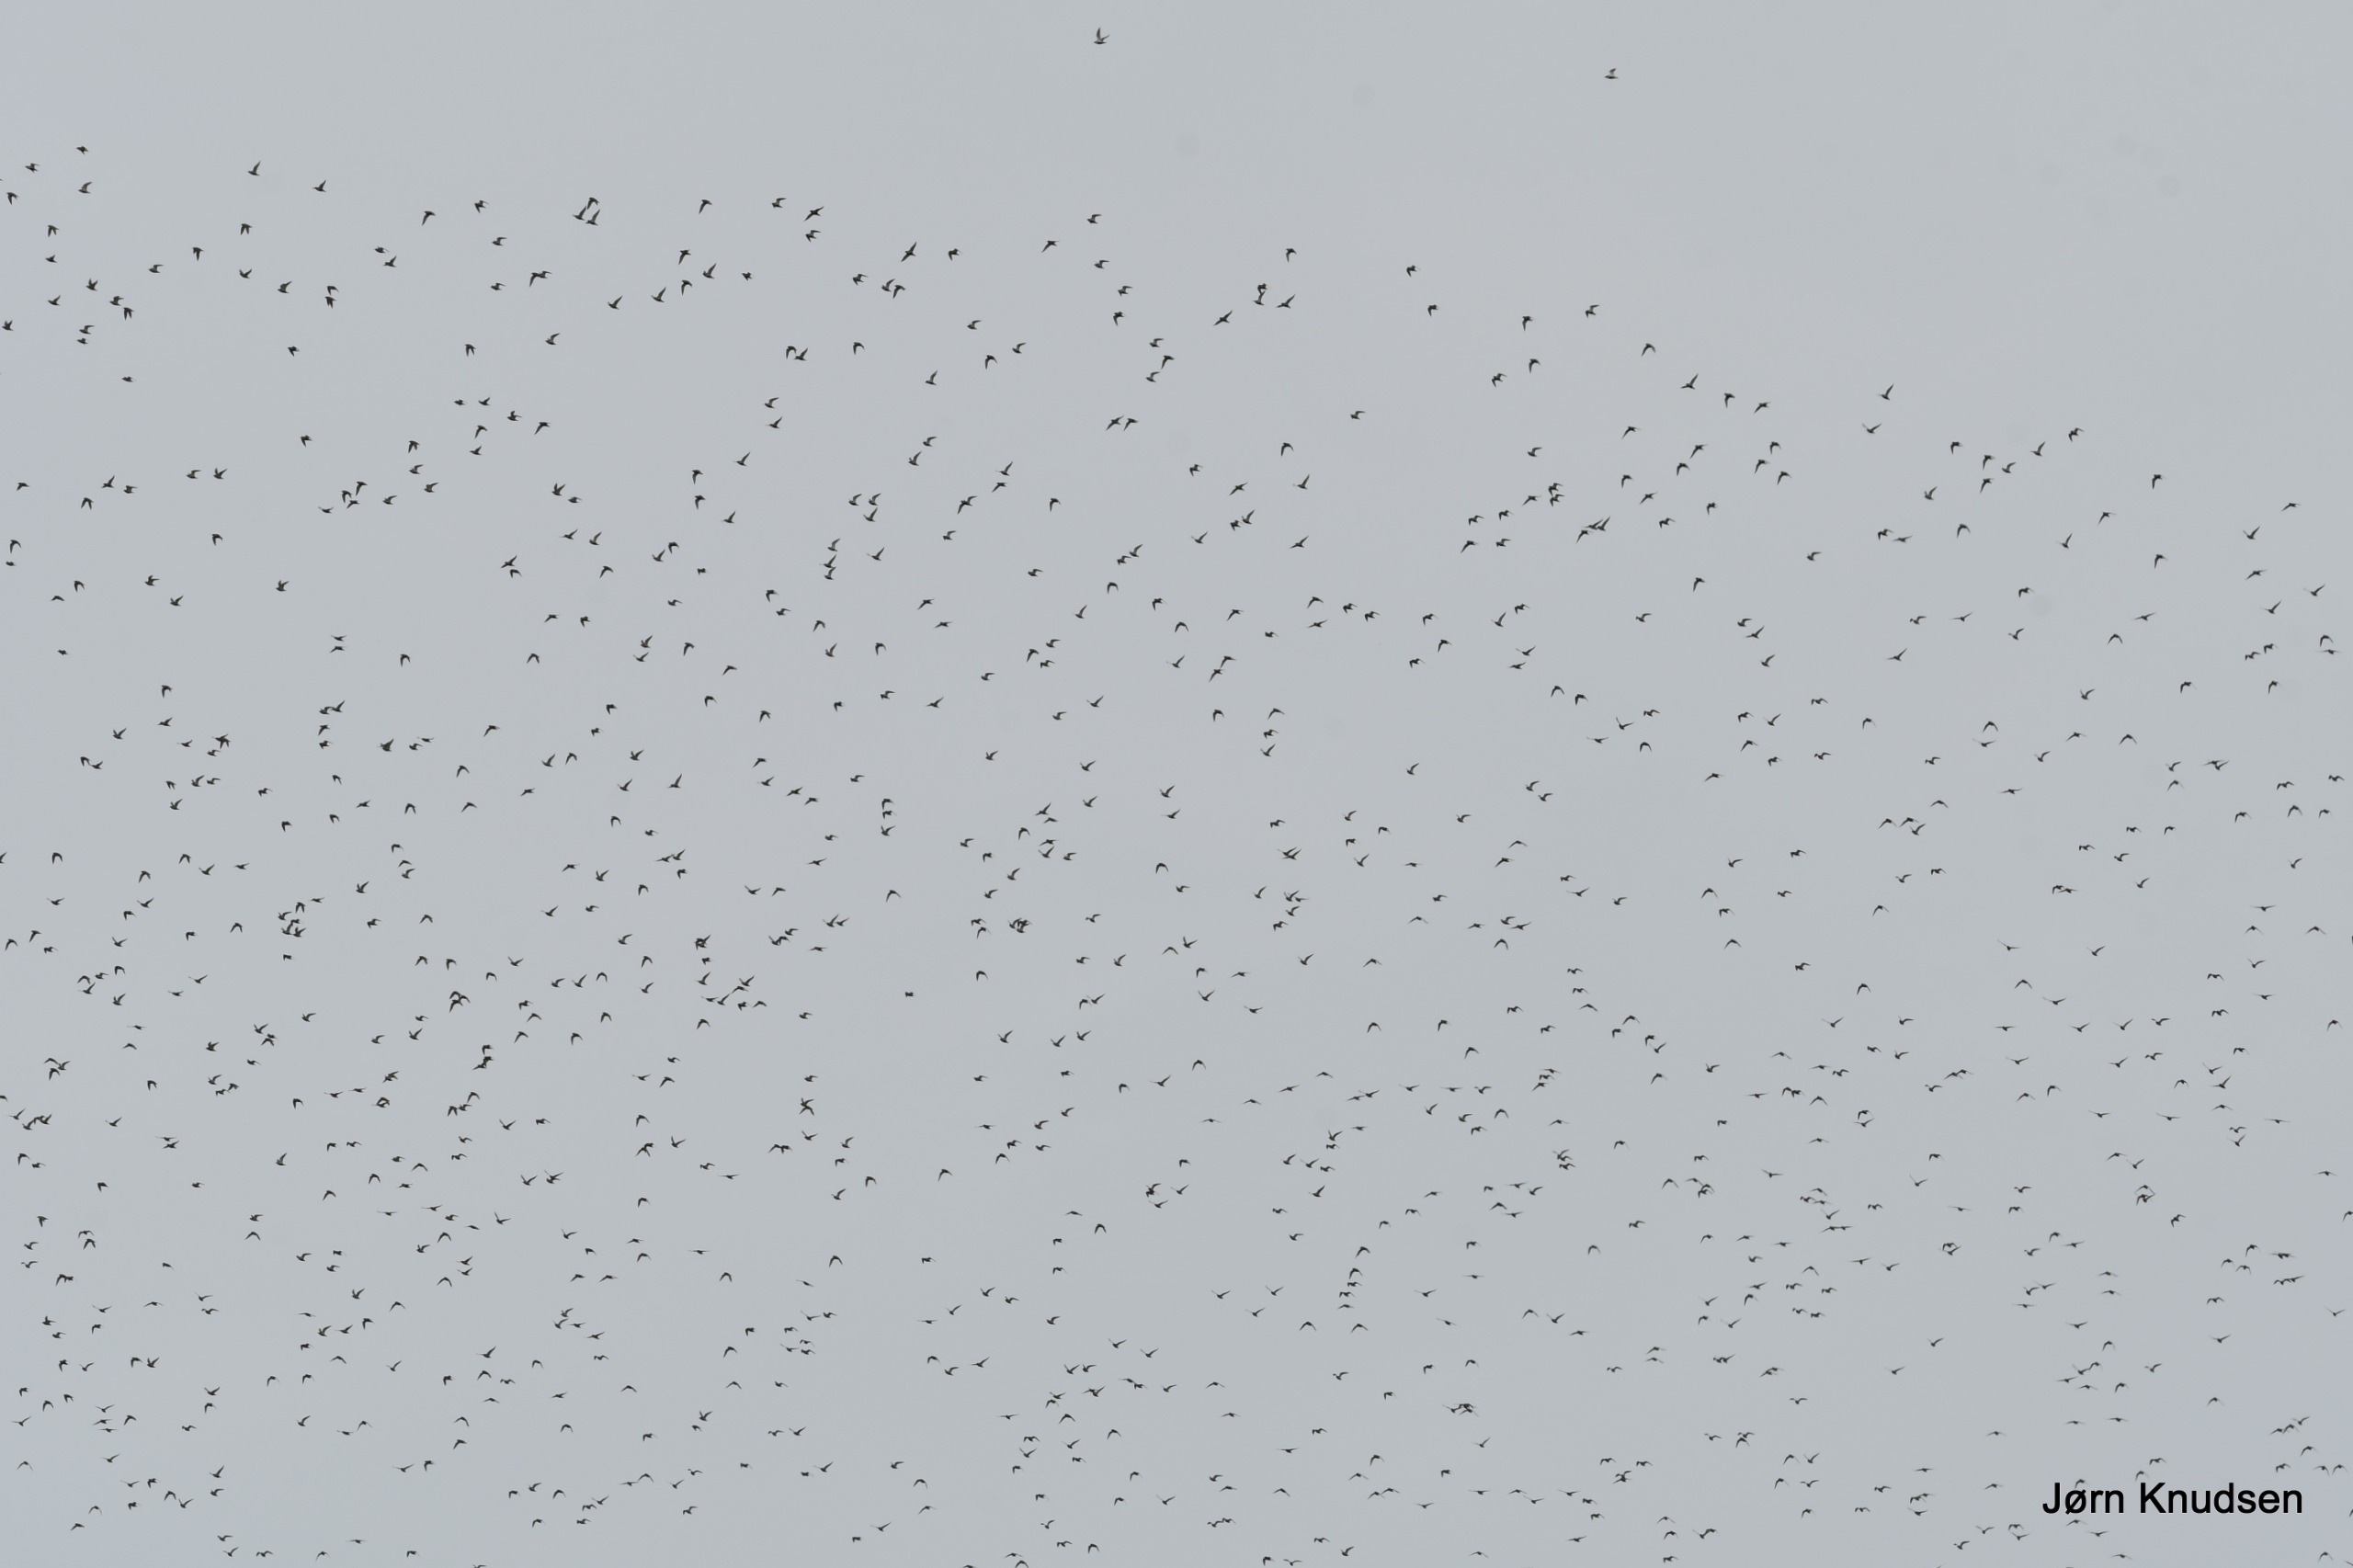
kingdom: Animalia
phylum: Chordata
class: Aves
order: Charadriiformes
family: Charadriidae
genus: Pluvialis
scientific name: Pluvialis apricaria
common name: Hjejle
